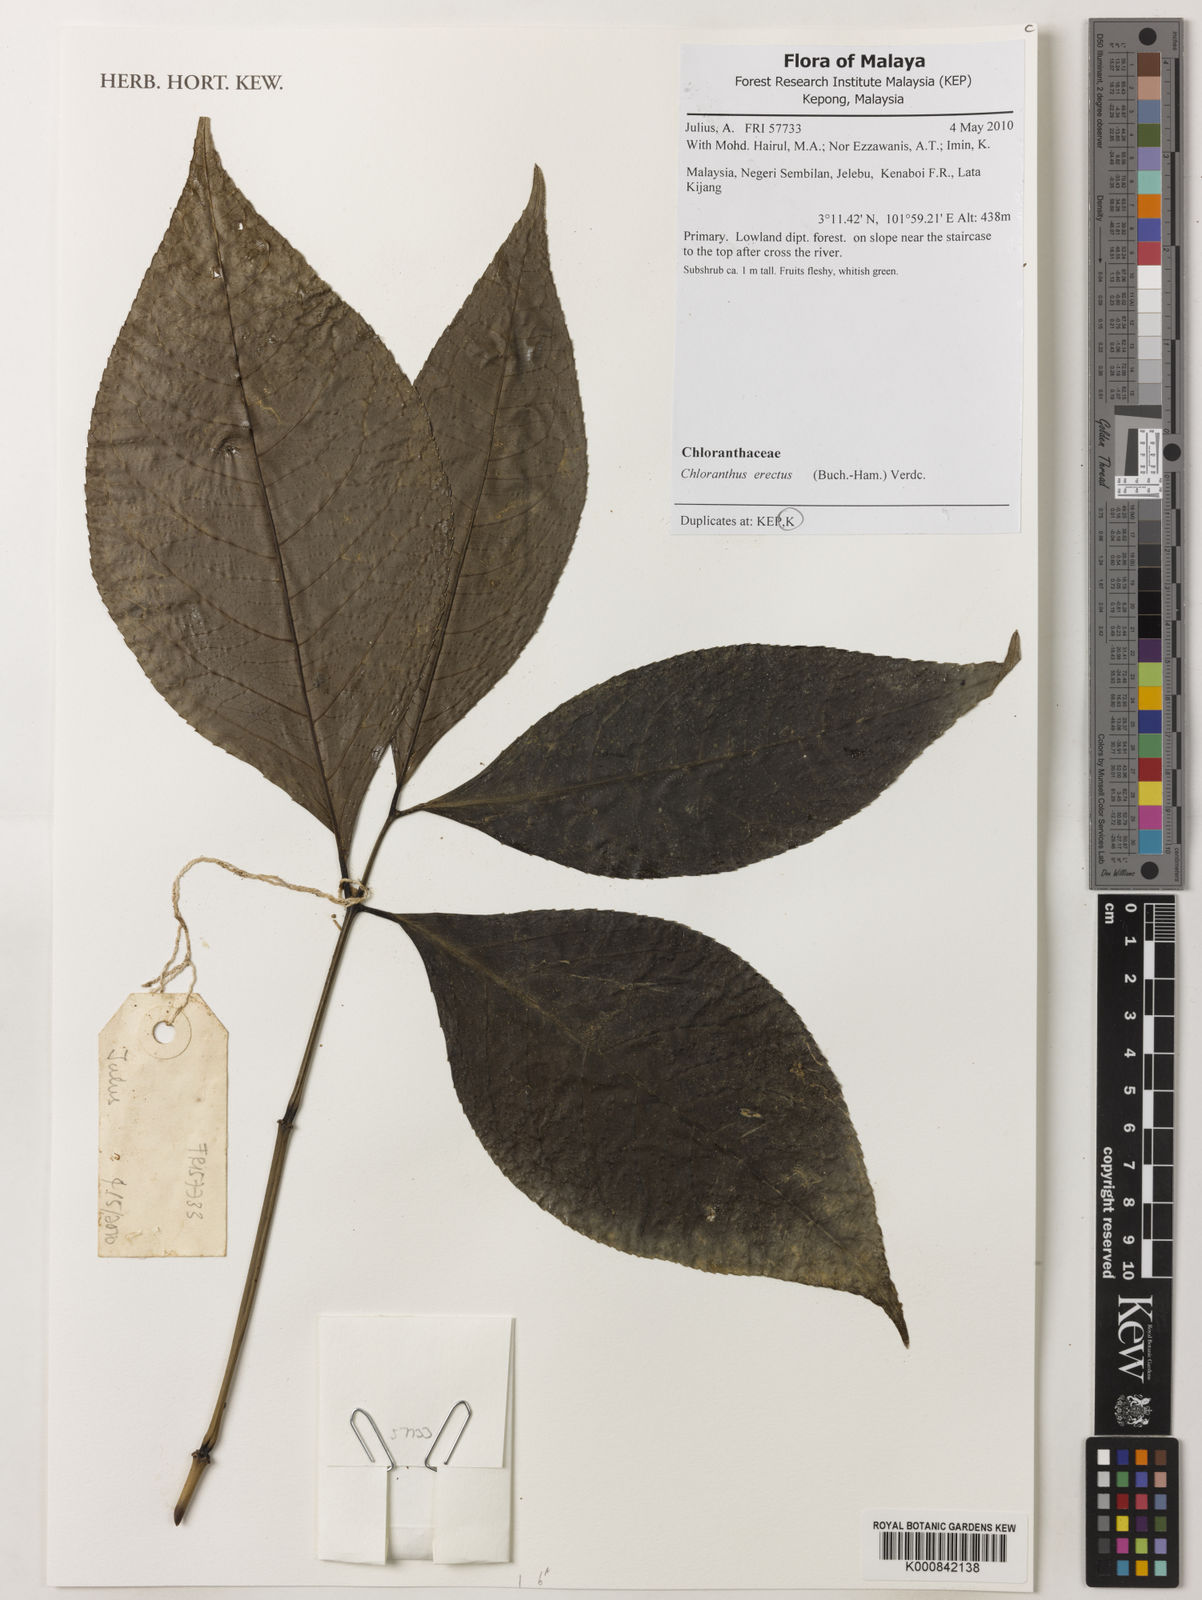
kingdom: Plantae
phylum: Tracheophyta
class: Magnoliopsida
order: Chloranthales
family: Chloranthaceae
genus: Chloranthus
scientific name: Chloranthus
